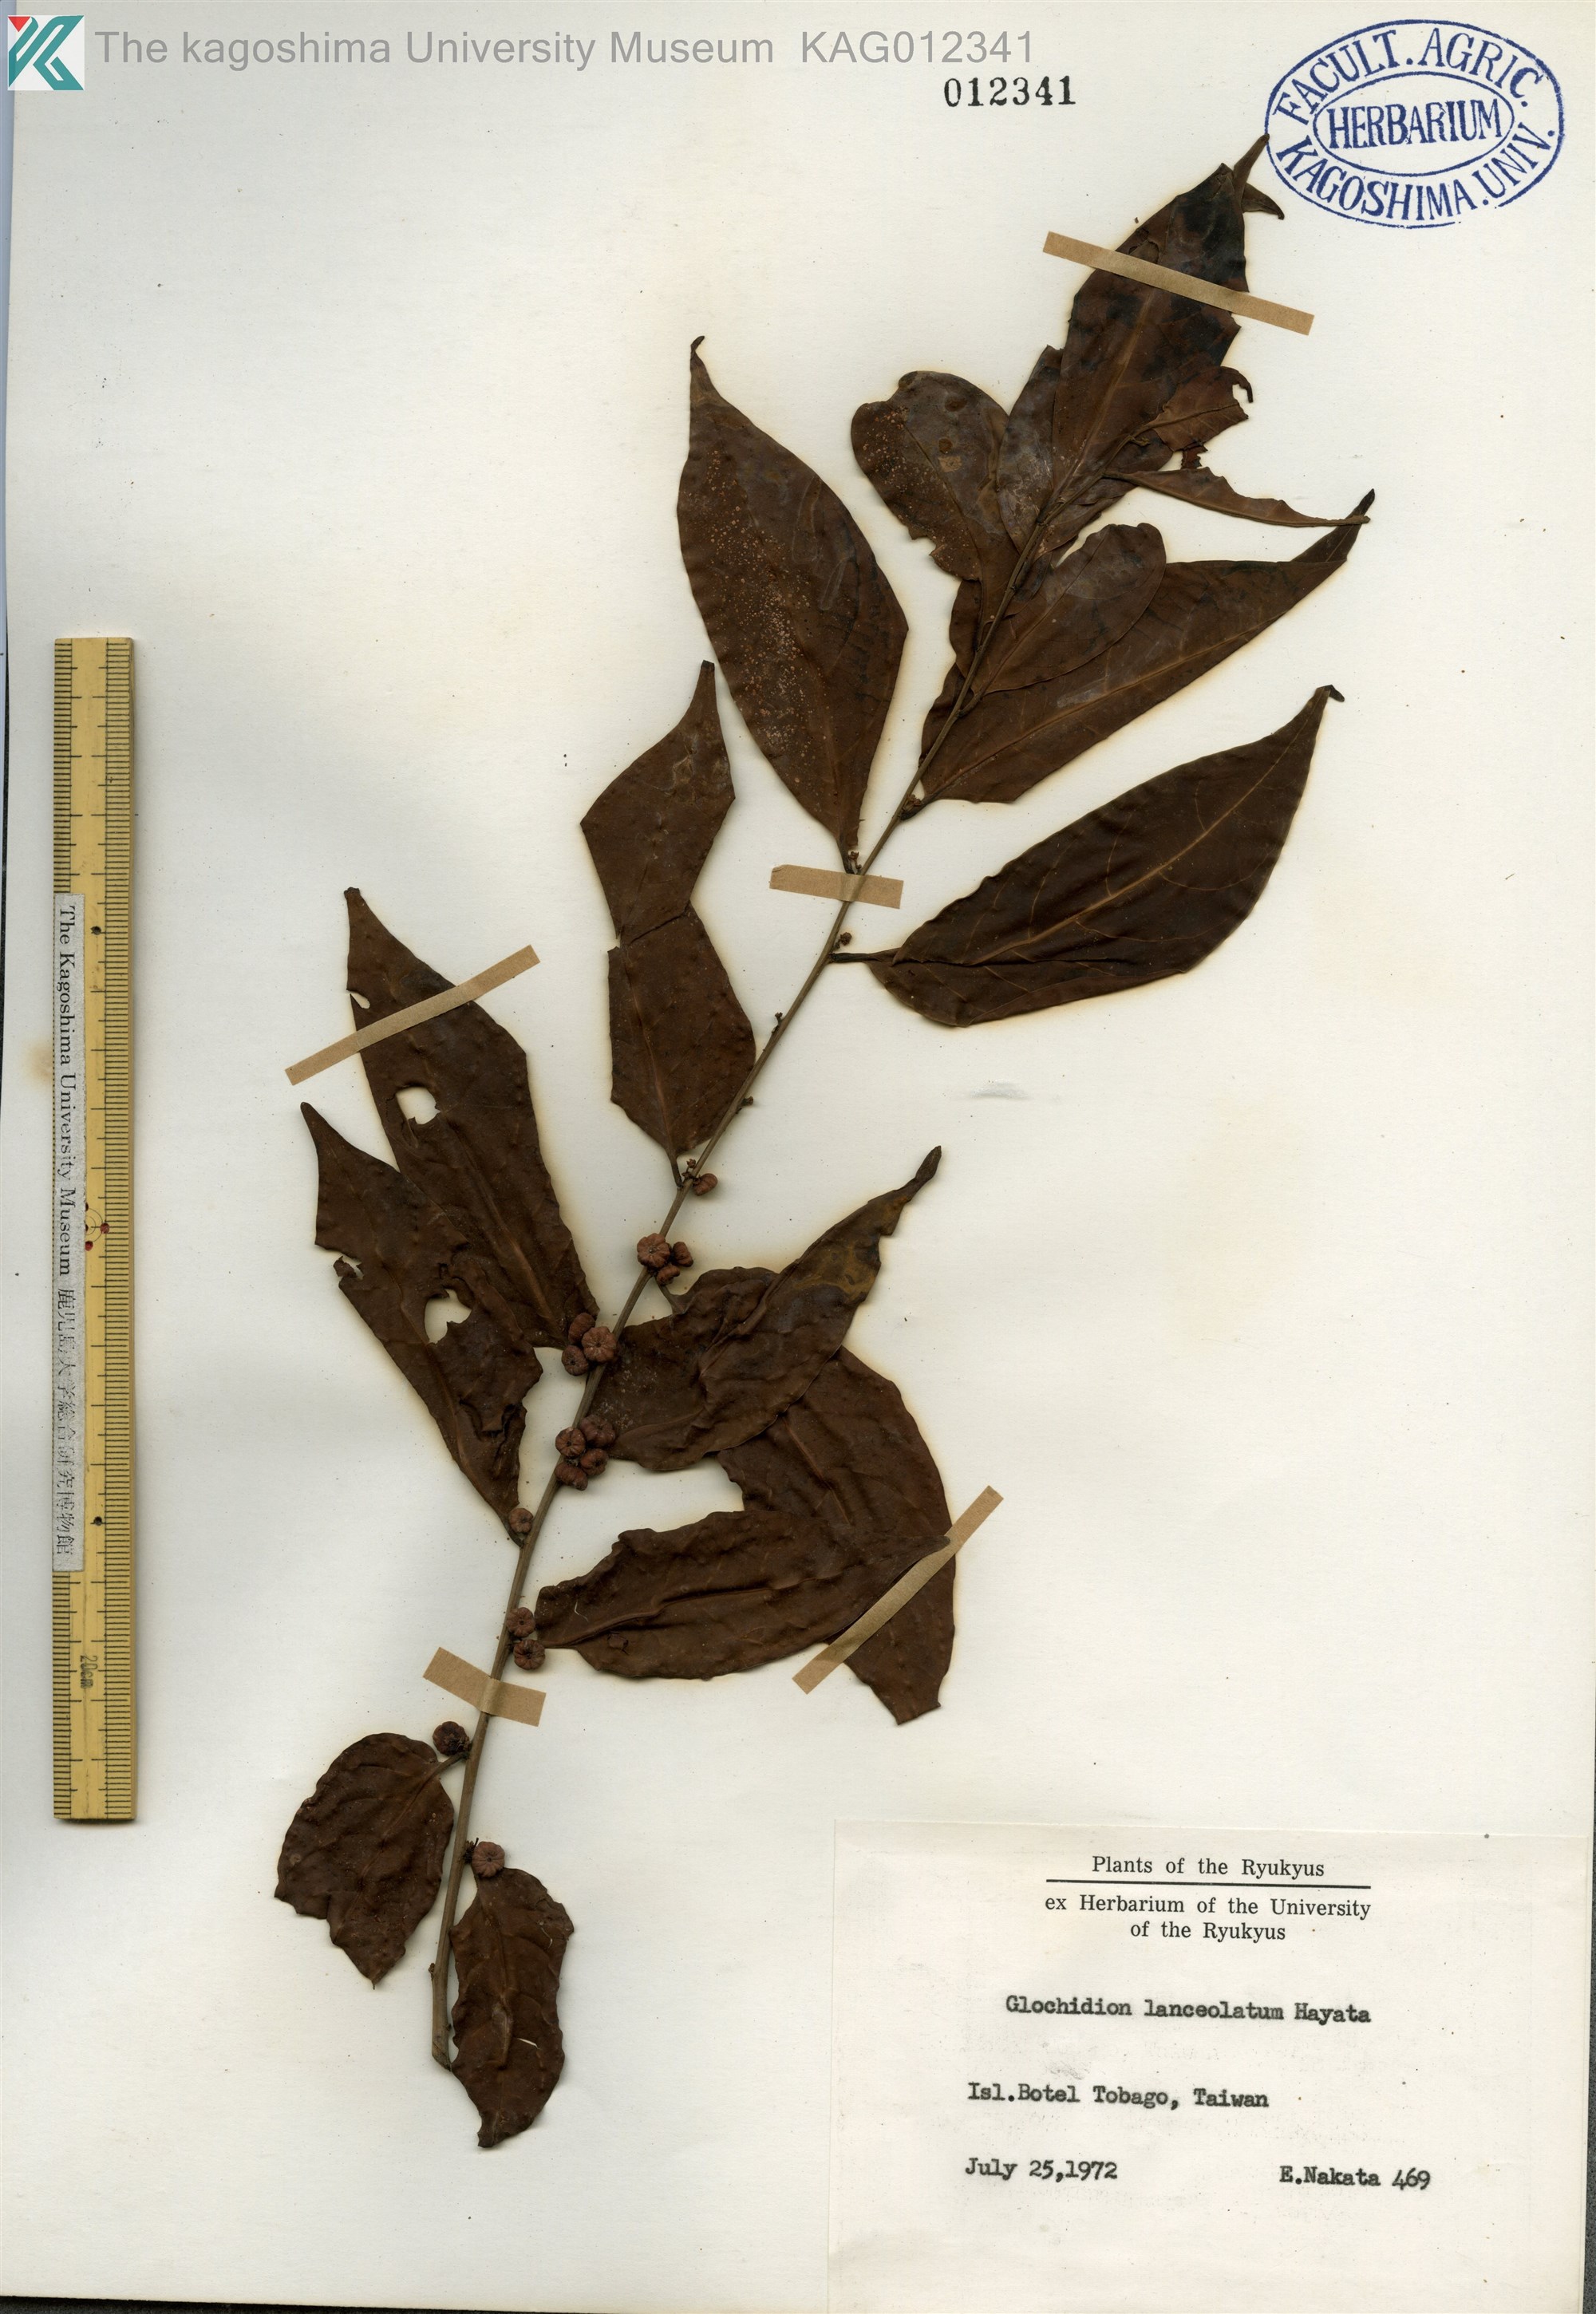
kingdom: Plantae
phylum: Tracheophyta
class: Magnoliopsida
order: Malpighiales
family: Phyllanthaceae
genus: Glochidion
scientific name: Glochidion lanceolatum
